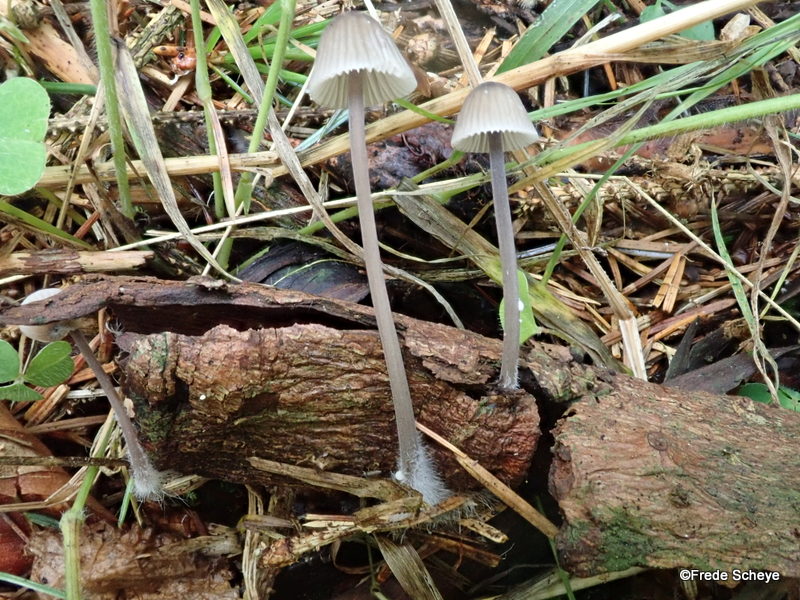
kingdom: Fungi
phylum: Basidiomycota
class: Agaricomycetes
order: Agaricales
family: Mycenaceae
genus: Mycena
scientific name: Mycena galopus
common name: hvidmælket huesvamp
